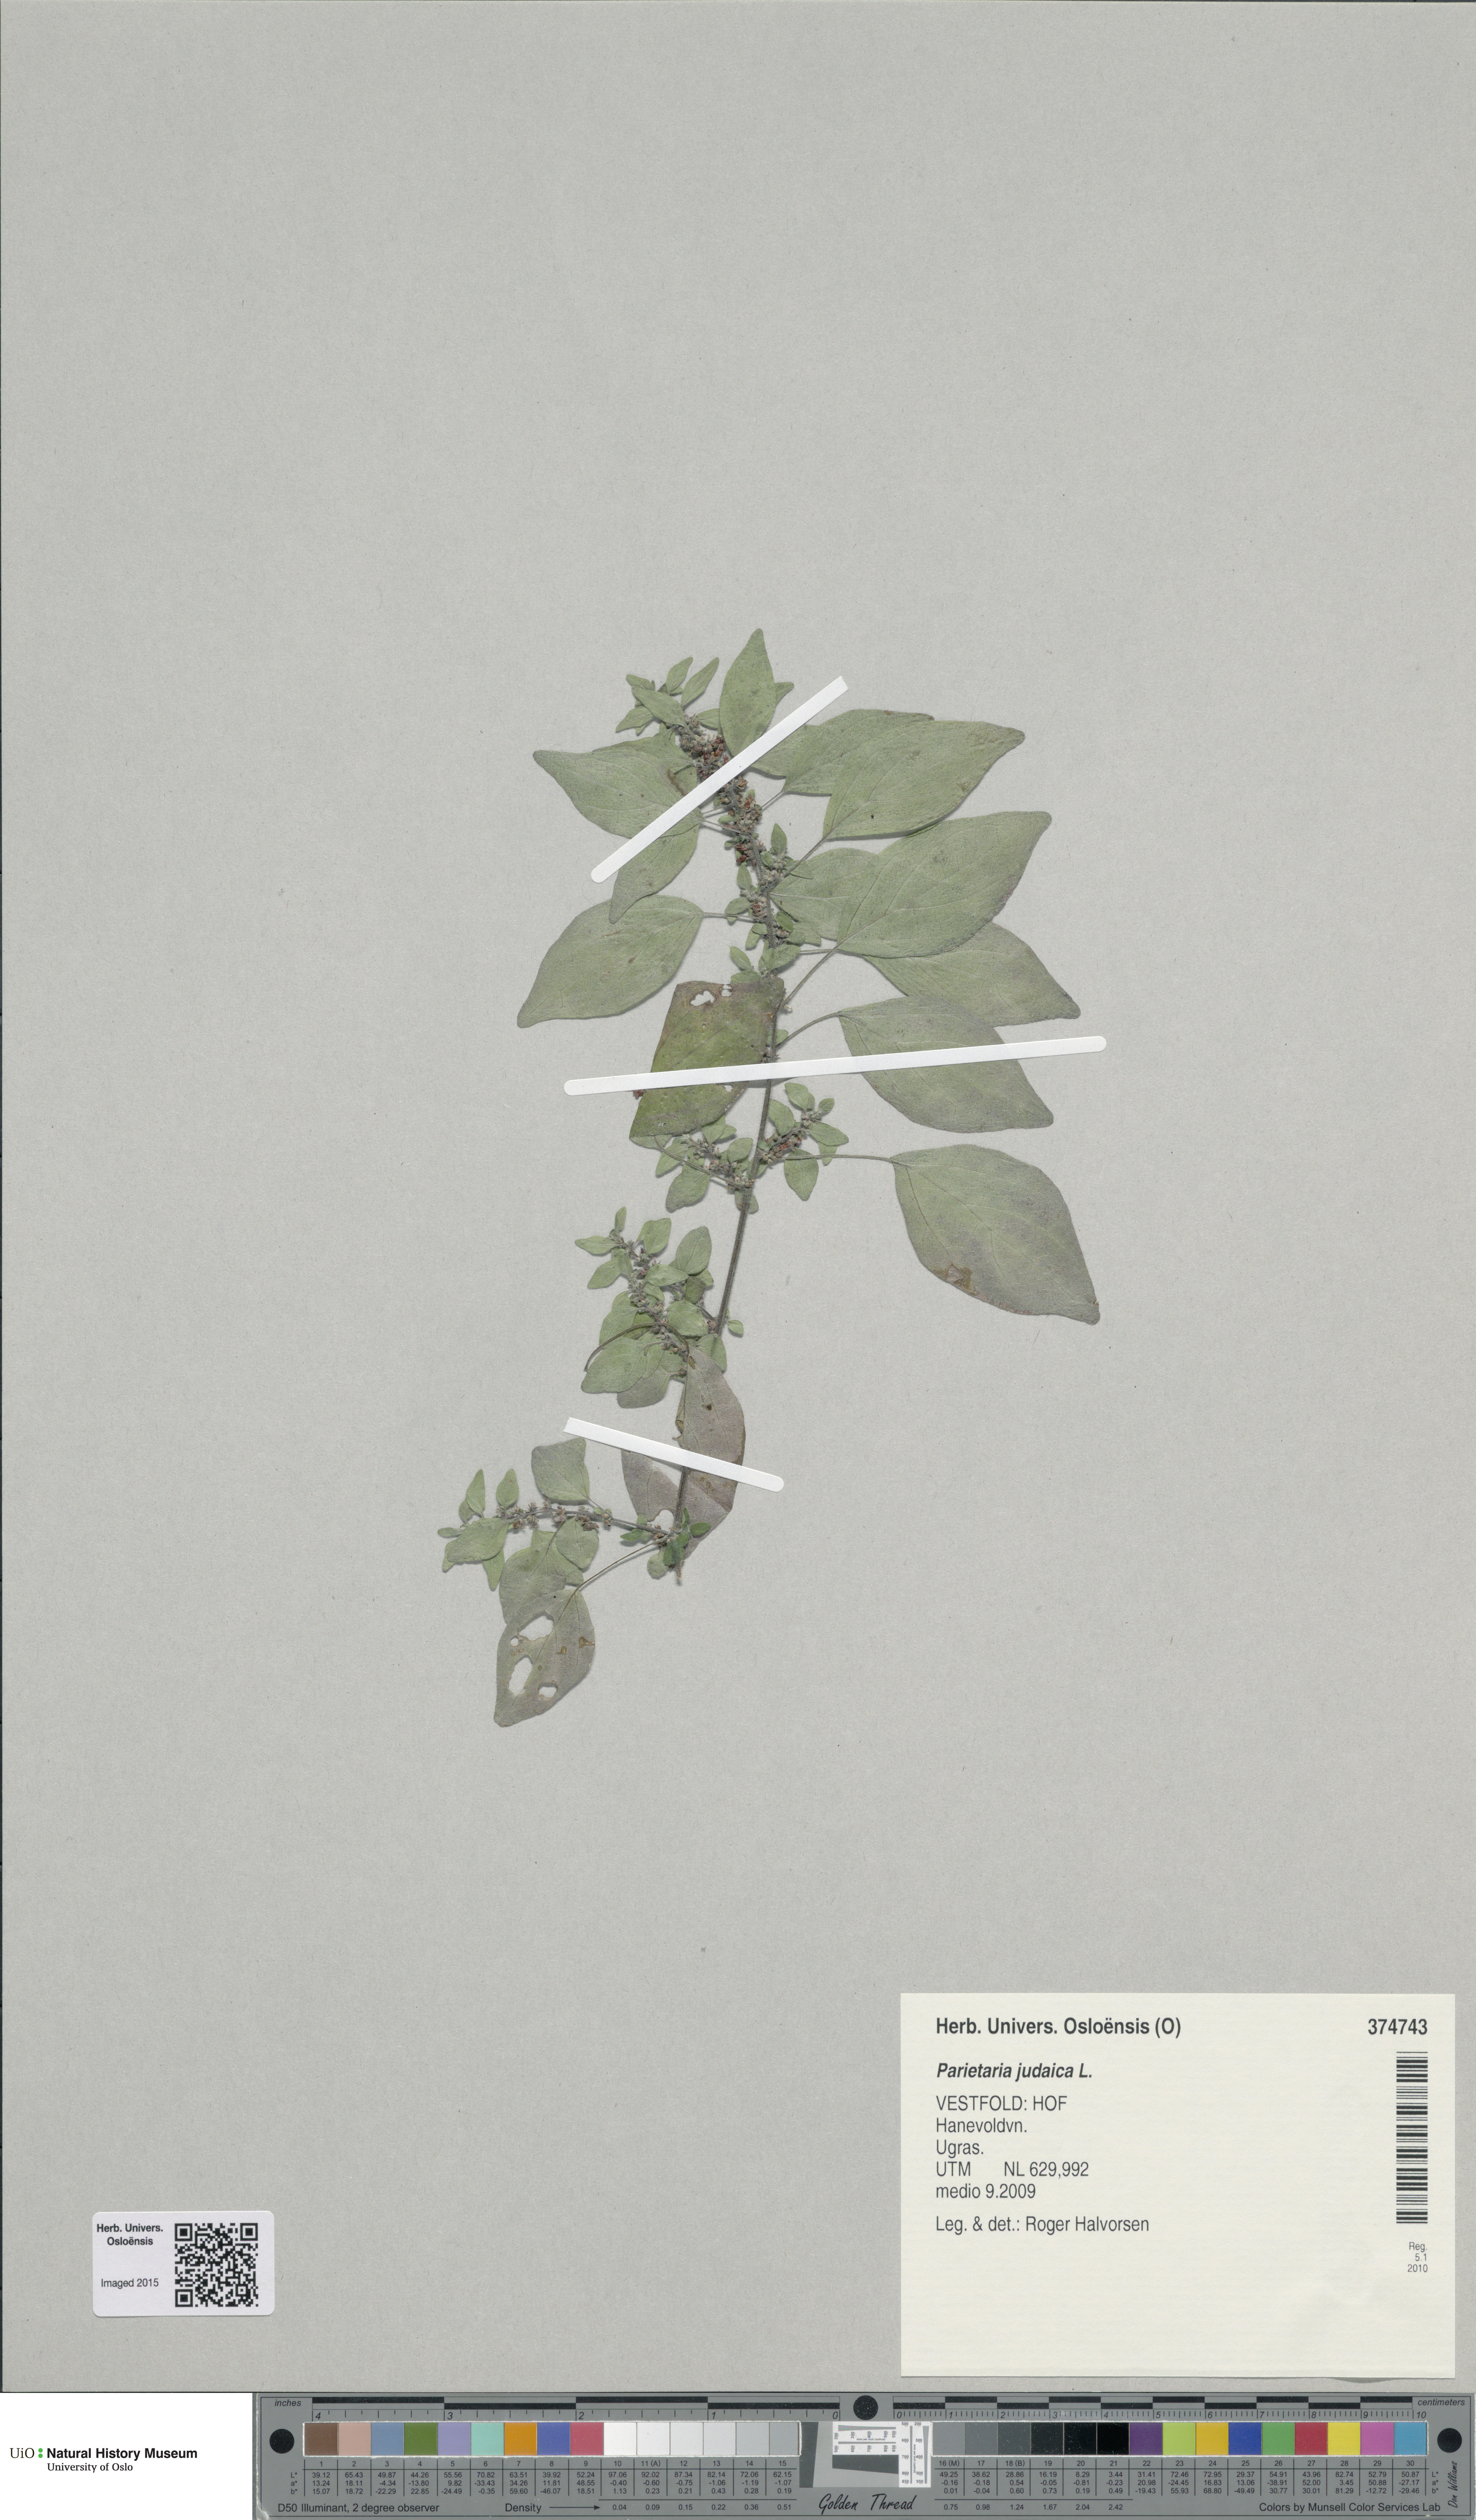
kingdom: Plantae
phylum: Tracheophyta
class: Magnoliopsida
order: Rosales
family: Urticaceae
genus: Parietaria
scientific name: Parietaria judaica
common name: Pellitory-of-the-wall
